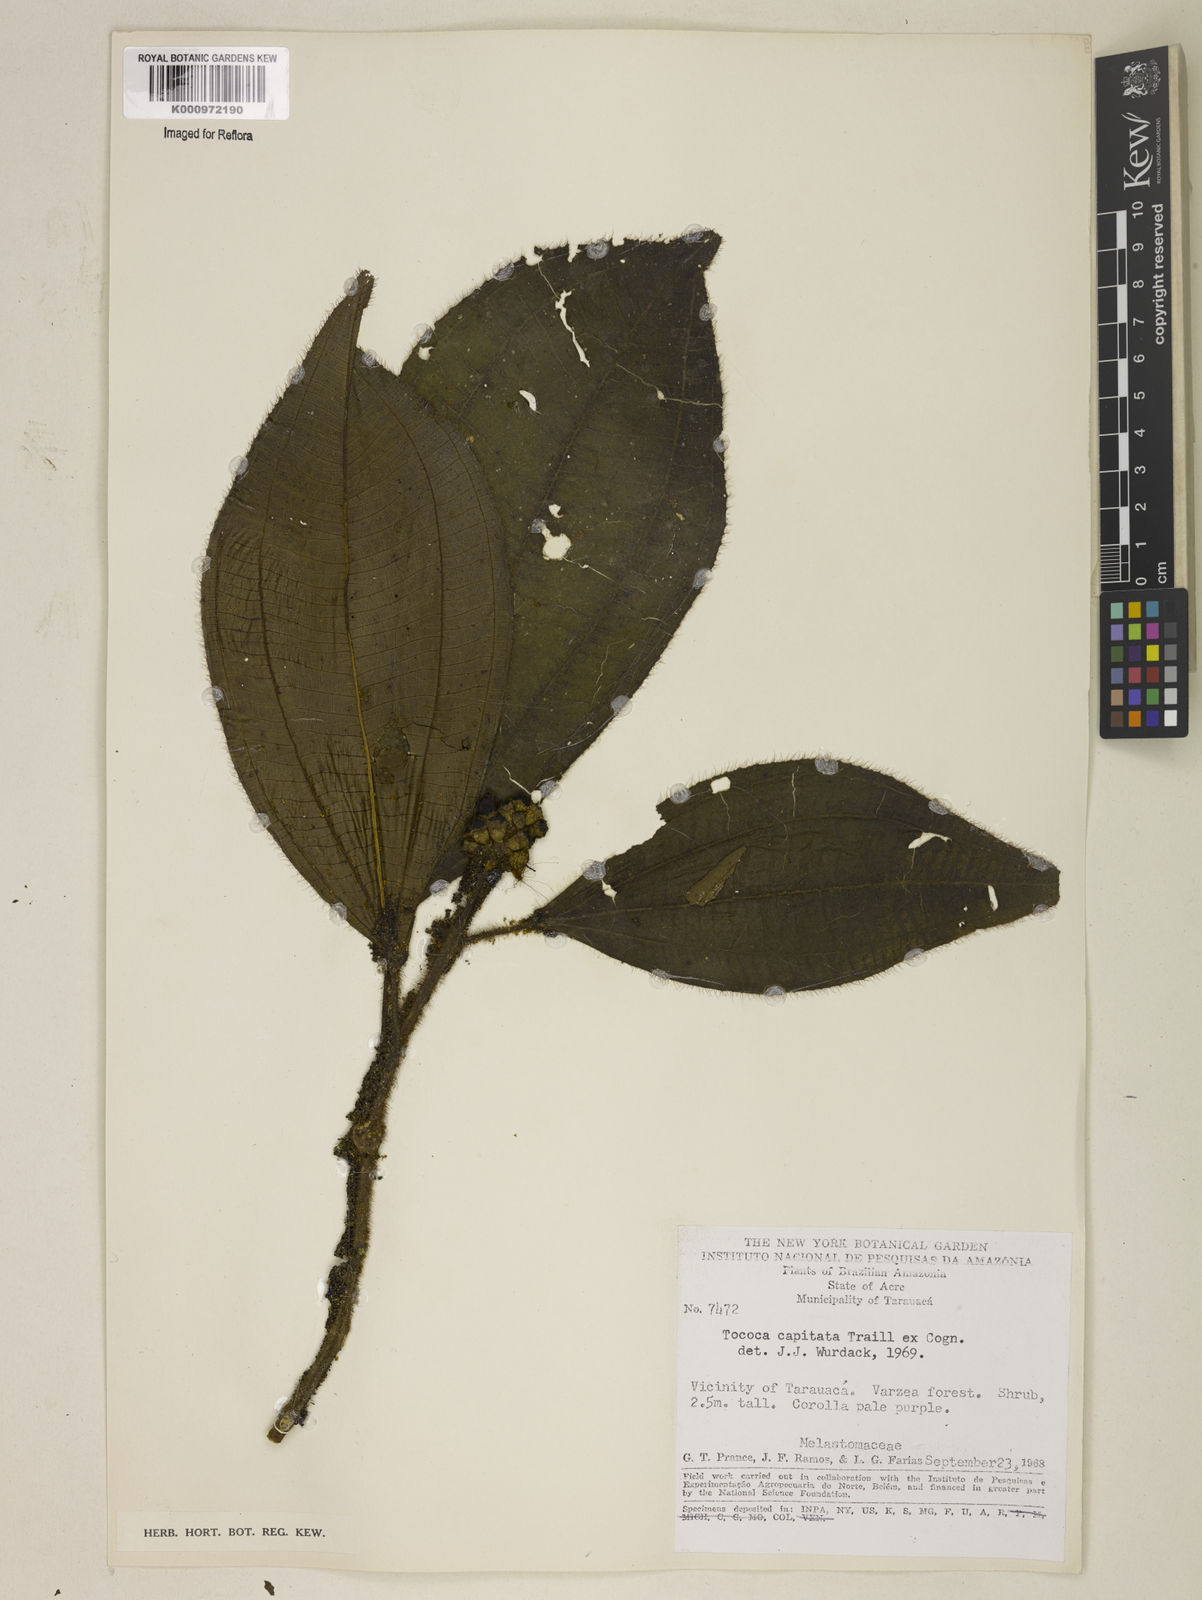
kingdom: Plantae
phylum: Tracheophyta
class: Magnoliopsida
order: Myrtales
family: Melastomataceae
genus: Miconia
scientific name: Miconia
